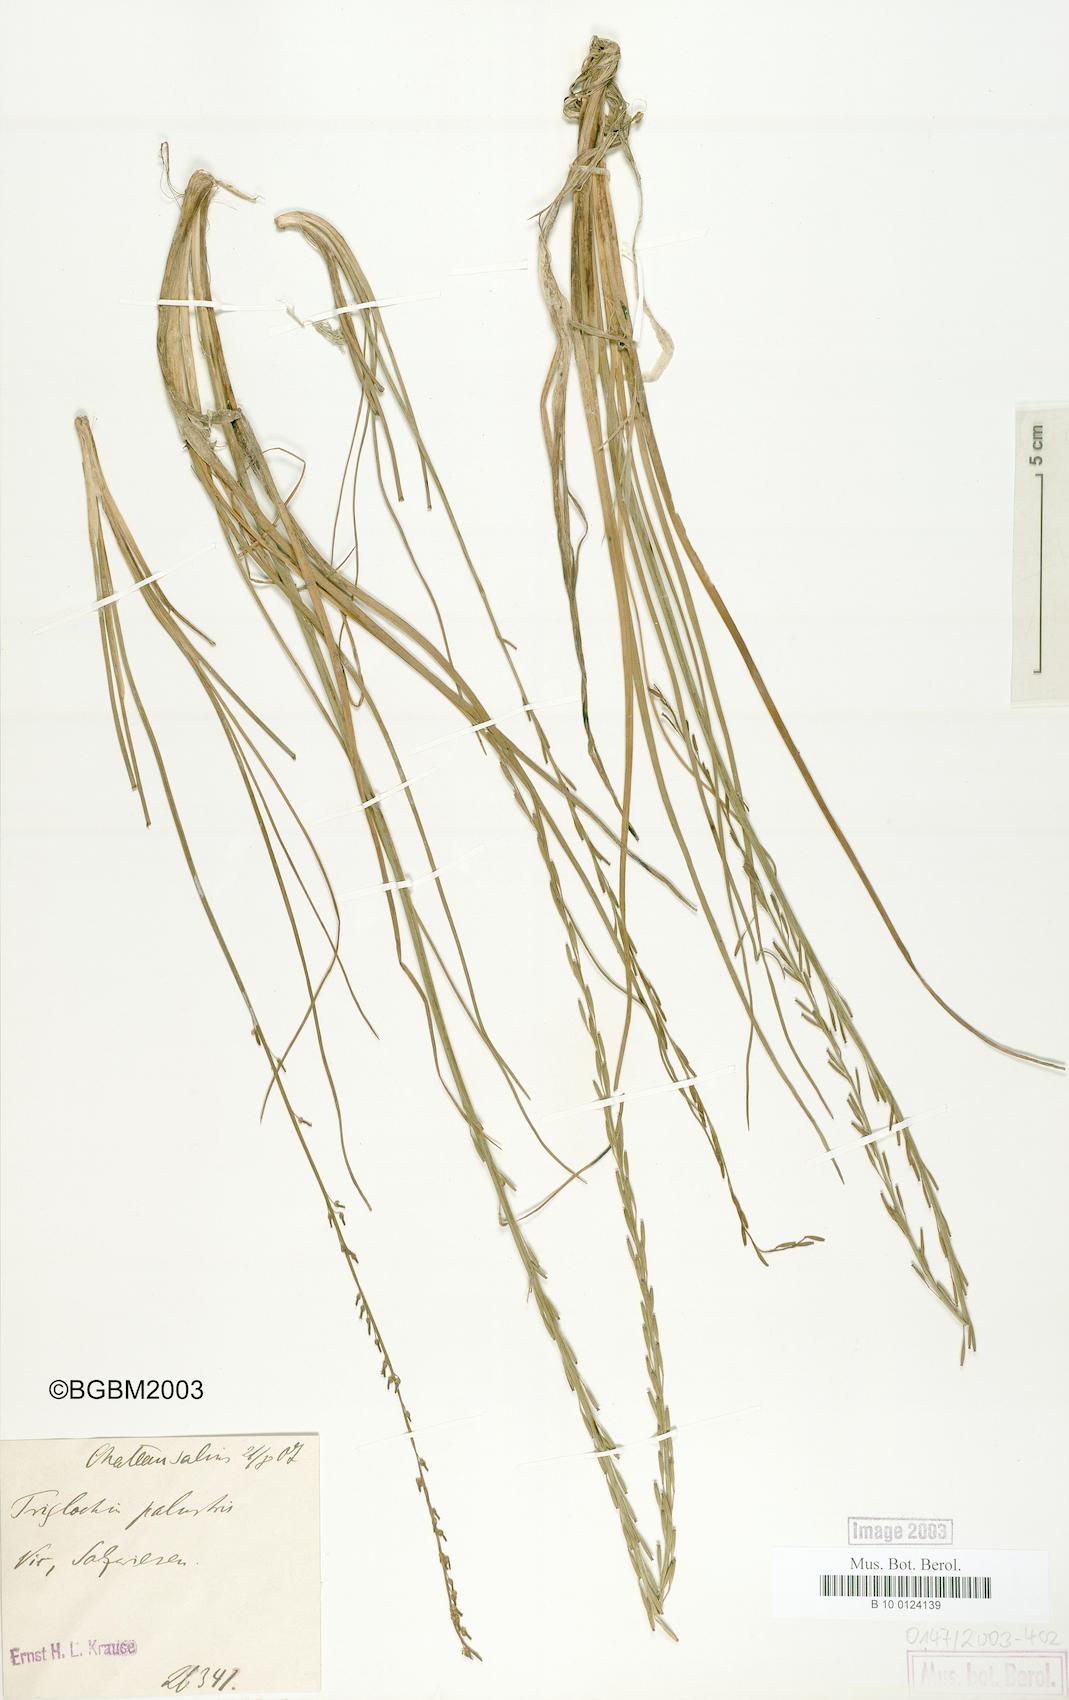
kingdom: Plantae
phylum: Tracheophyta
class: Liliopsida
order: Alismatales
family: Juncaginaceae
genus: Triglochin
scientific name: Triglochin palustris
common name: Marsh arrowgrass
